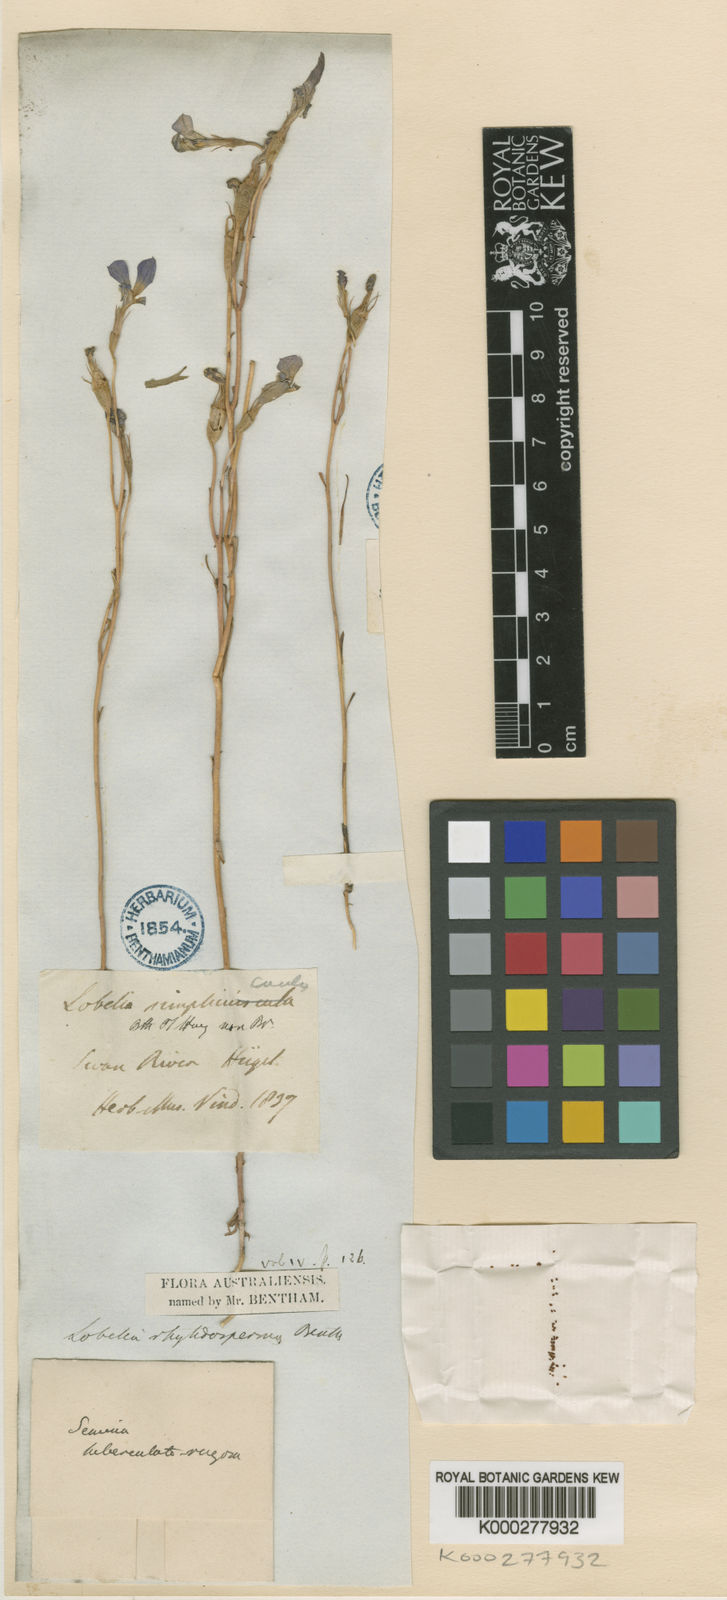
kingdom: Plantae
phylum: Tracheophyta
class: Magnoliopsida
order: Asterales
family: Campanulaceae
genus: Lobelia
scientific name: Lobelia rhytidosperma
